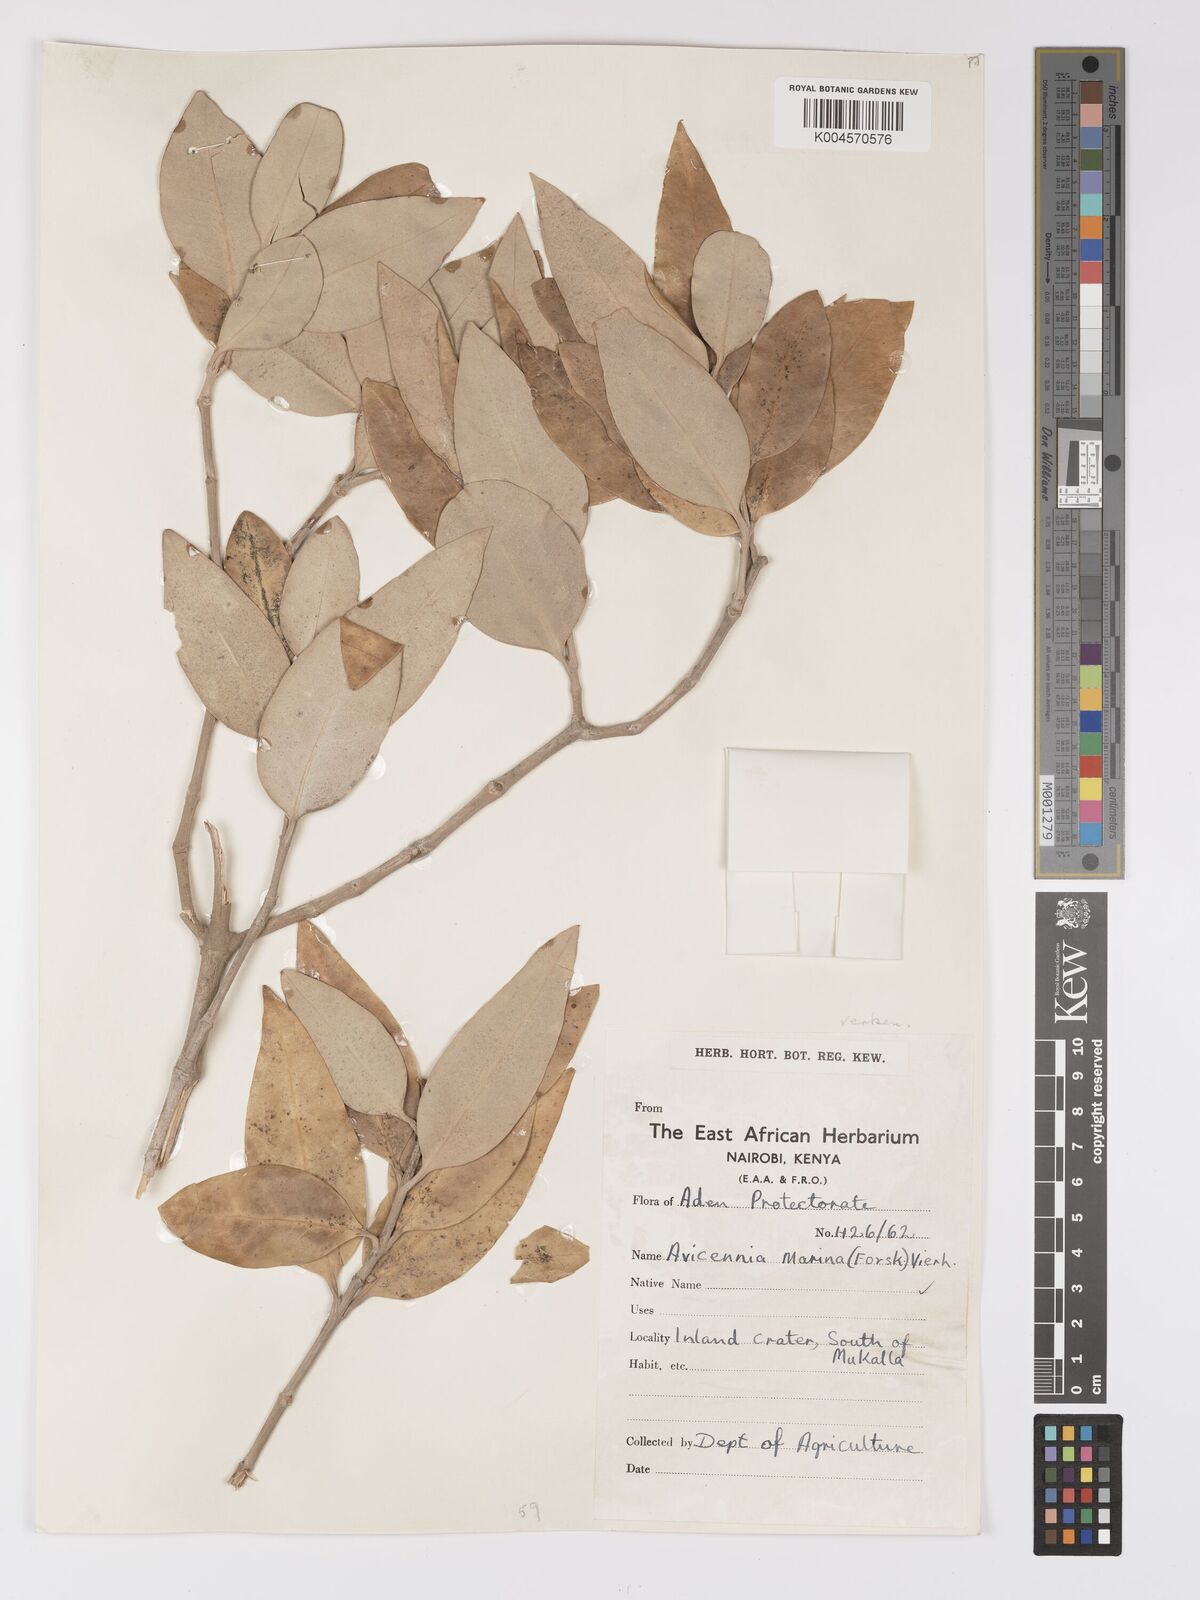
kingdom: Plantae
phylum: Tracheophyta
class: Magnoliopsida
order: Lamiales
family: Acanthaceae
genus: Avicennia
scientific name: Avicennia marina
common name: Gray mangrove
